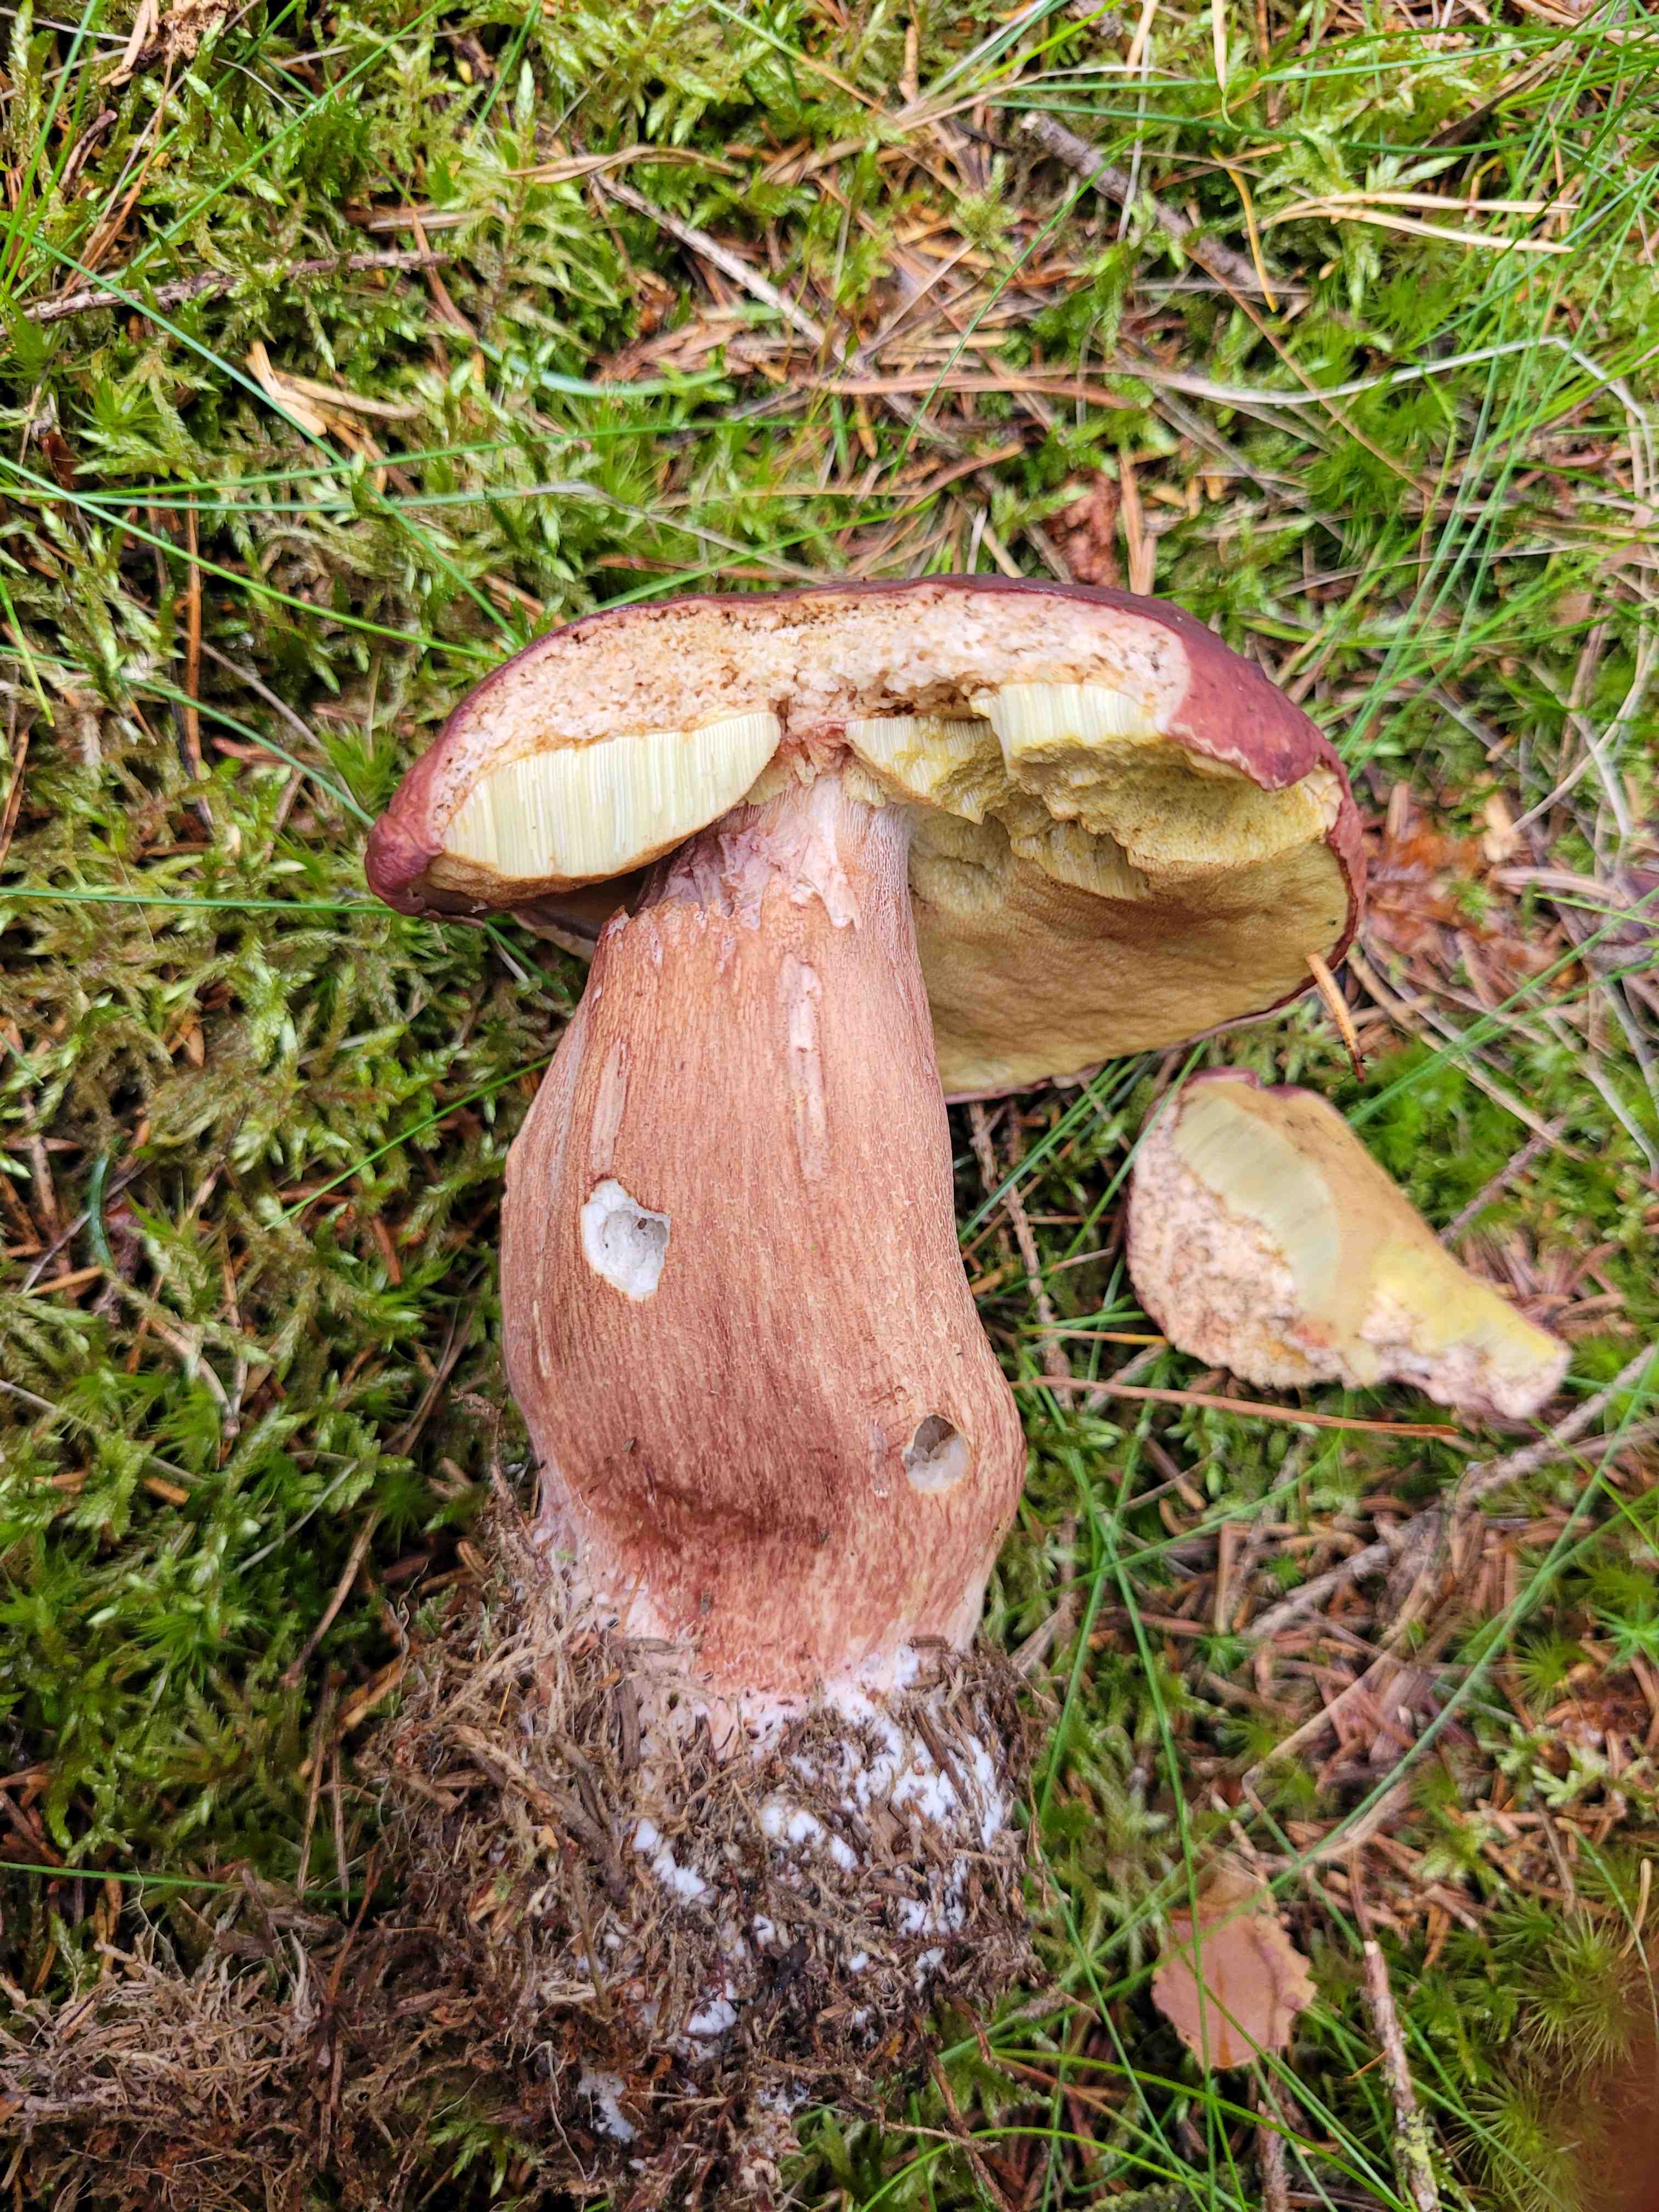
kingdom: Fungi
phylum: Basidiomycota
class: Agaricomycetes
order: Boletales
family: Boletaceae
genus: Boletus
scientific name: Boletus pinophilus
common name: rødbrun rørhat
